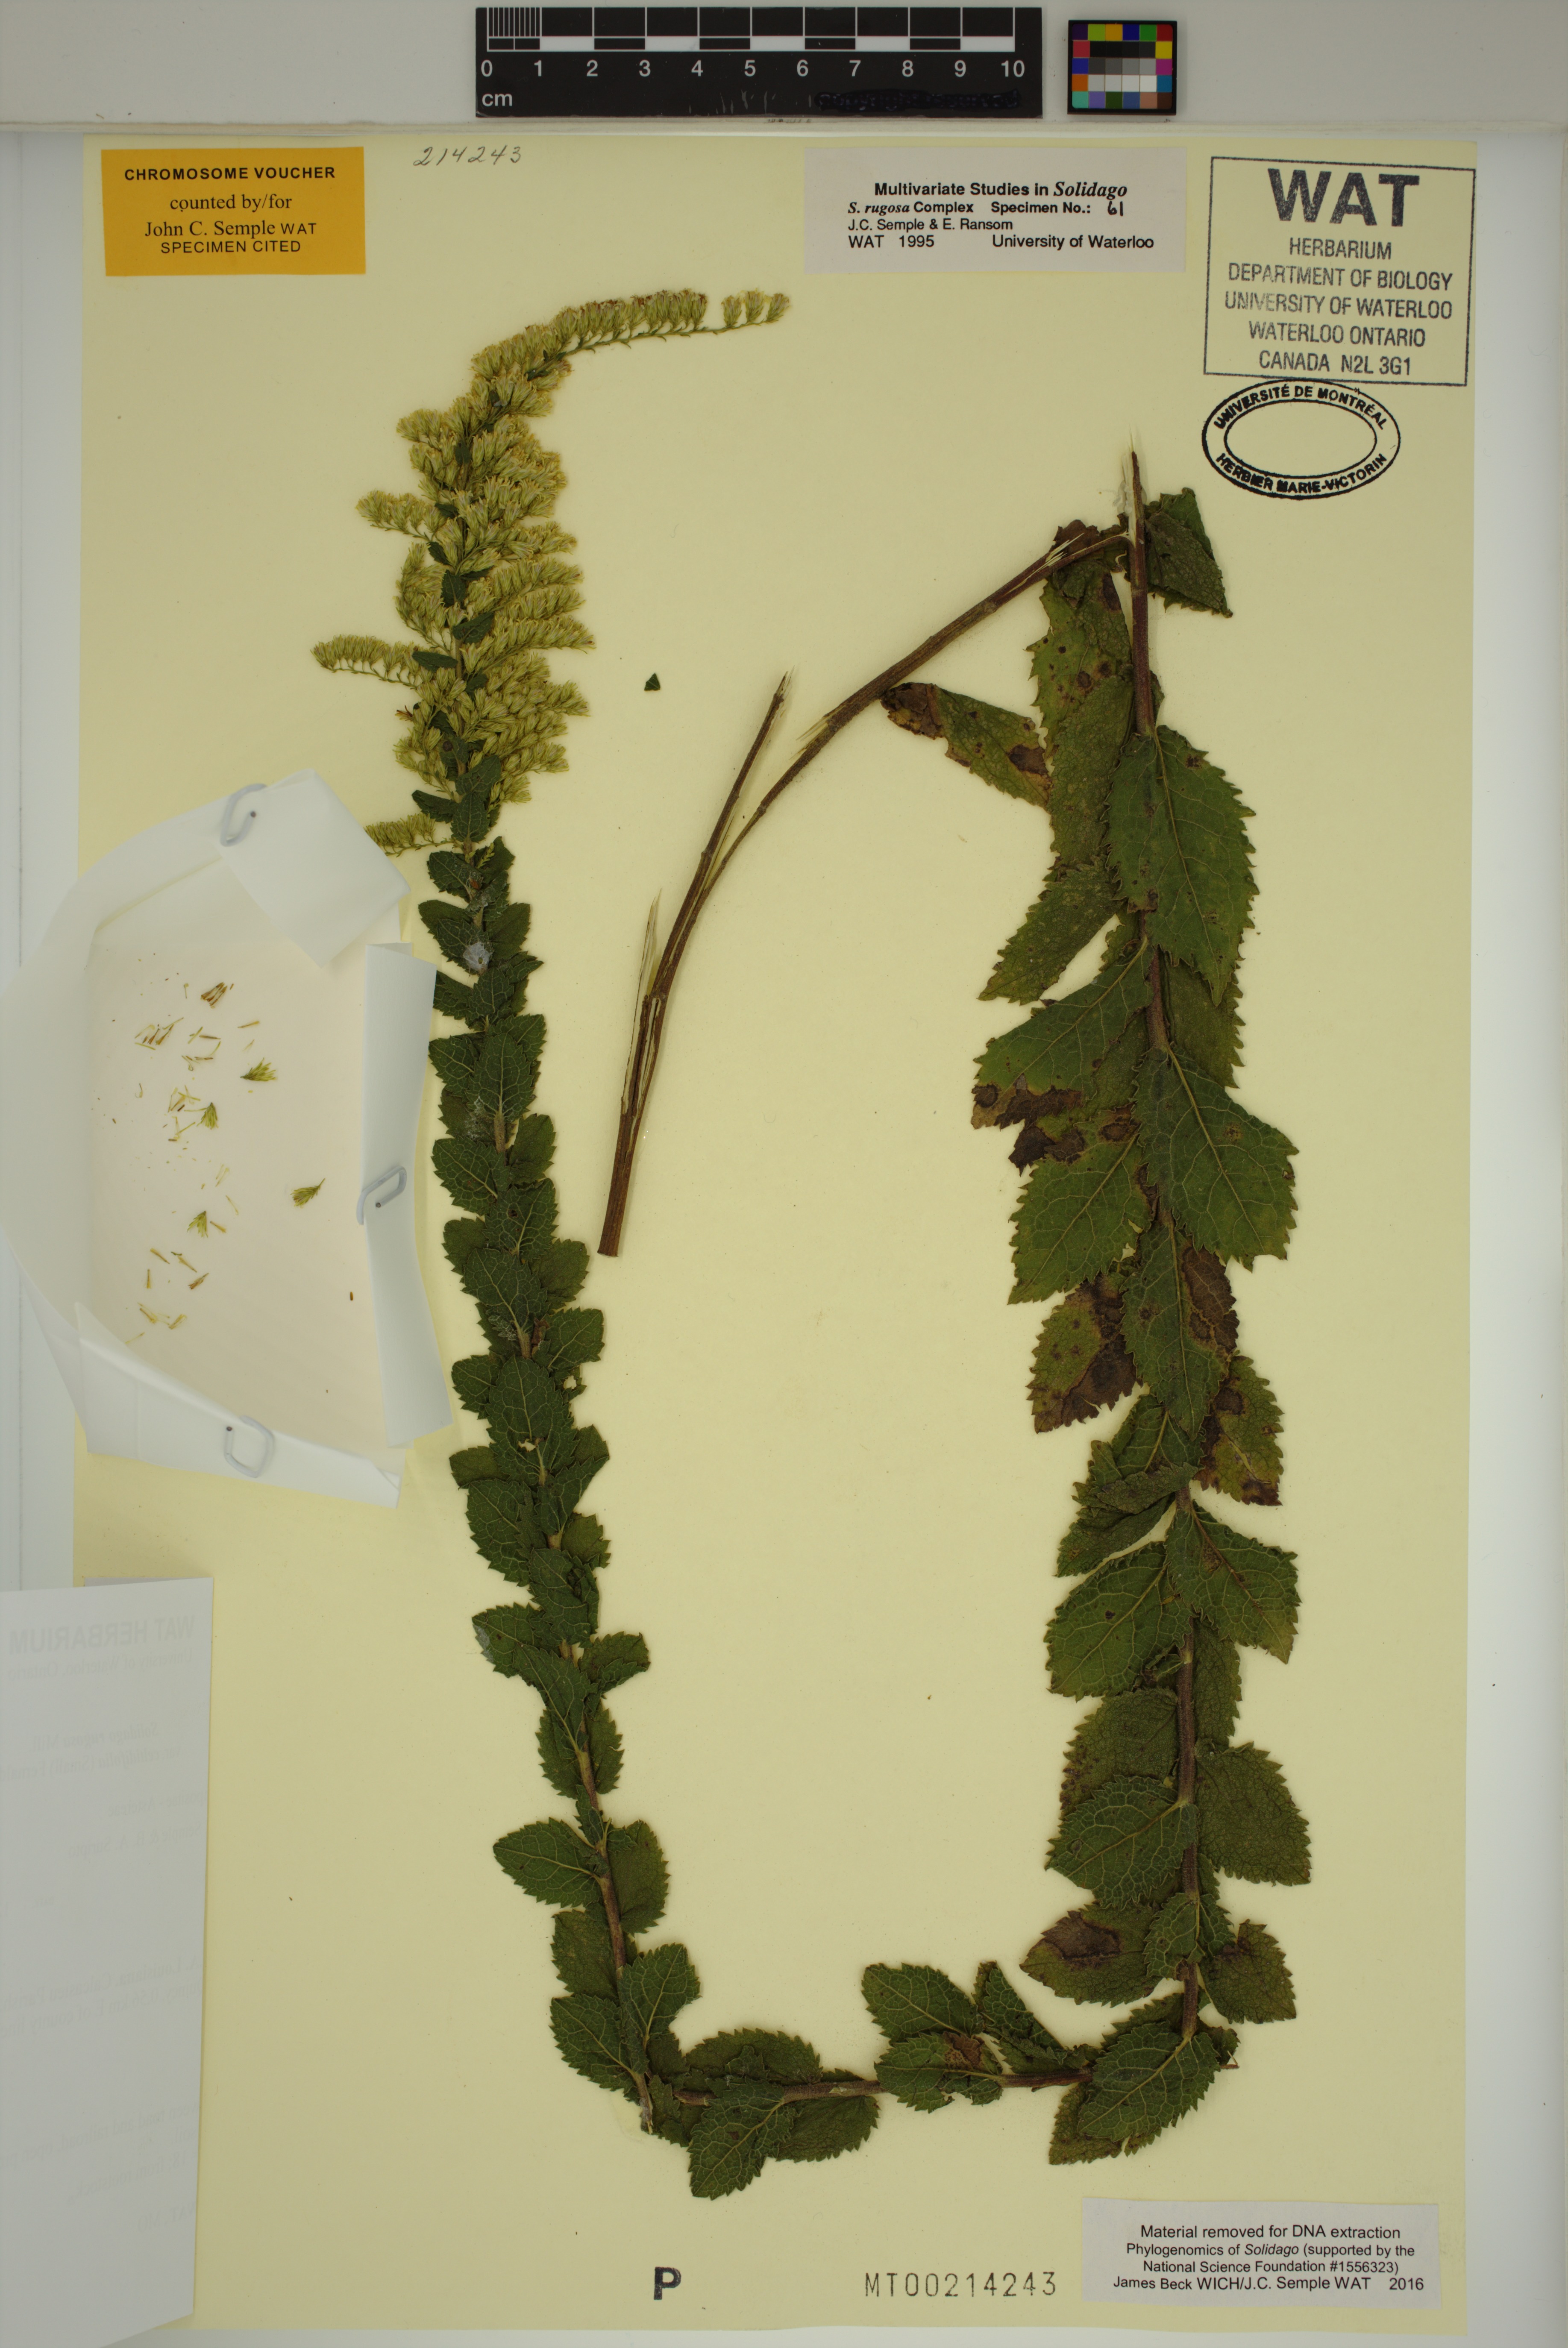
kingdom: Plantae
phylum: Tracheophyta
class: Magnoliopsida
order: Asterales
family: Asteraceae
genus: Solidago
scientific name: Solidago rugosa
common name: Rough-stemmed goldenrod
